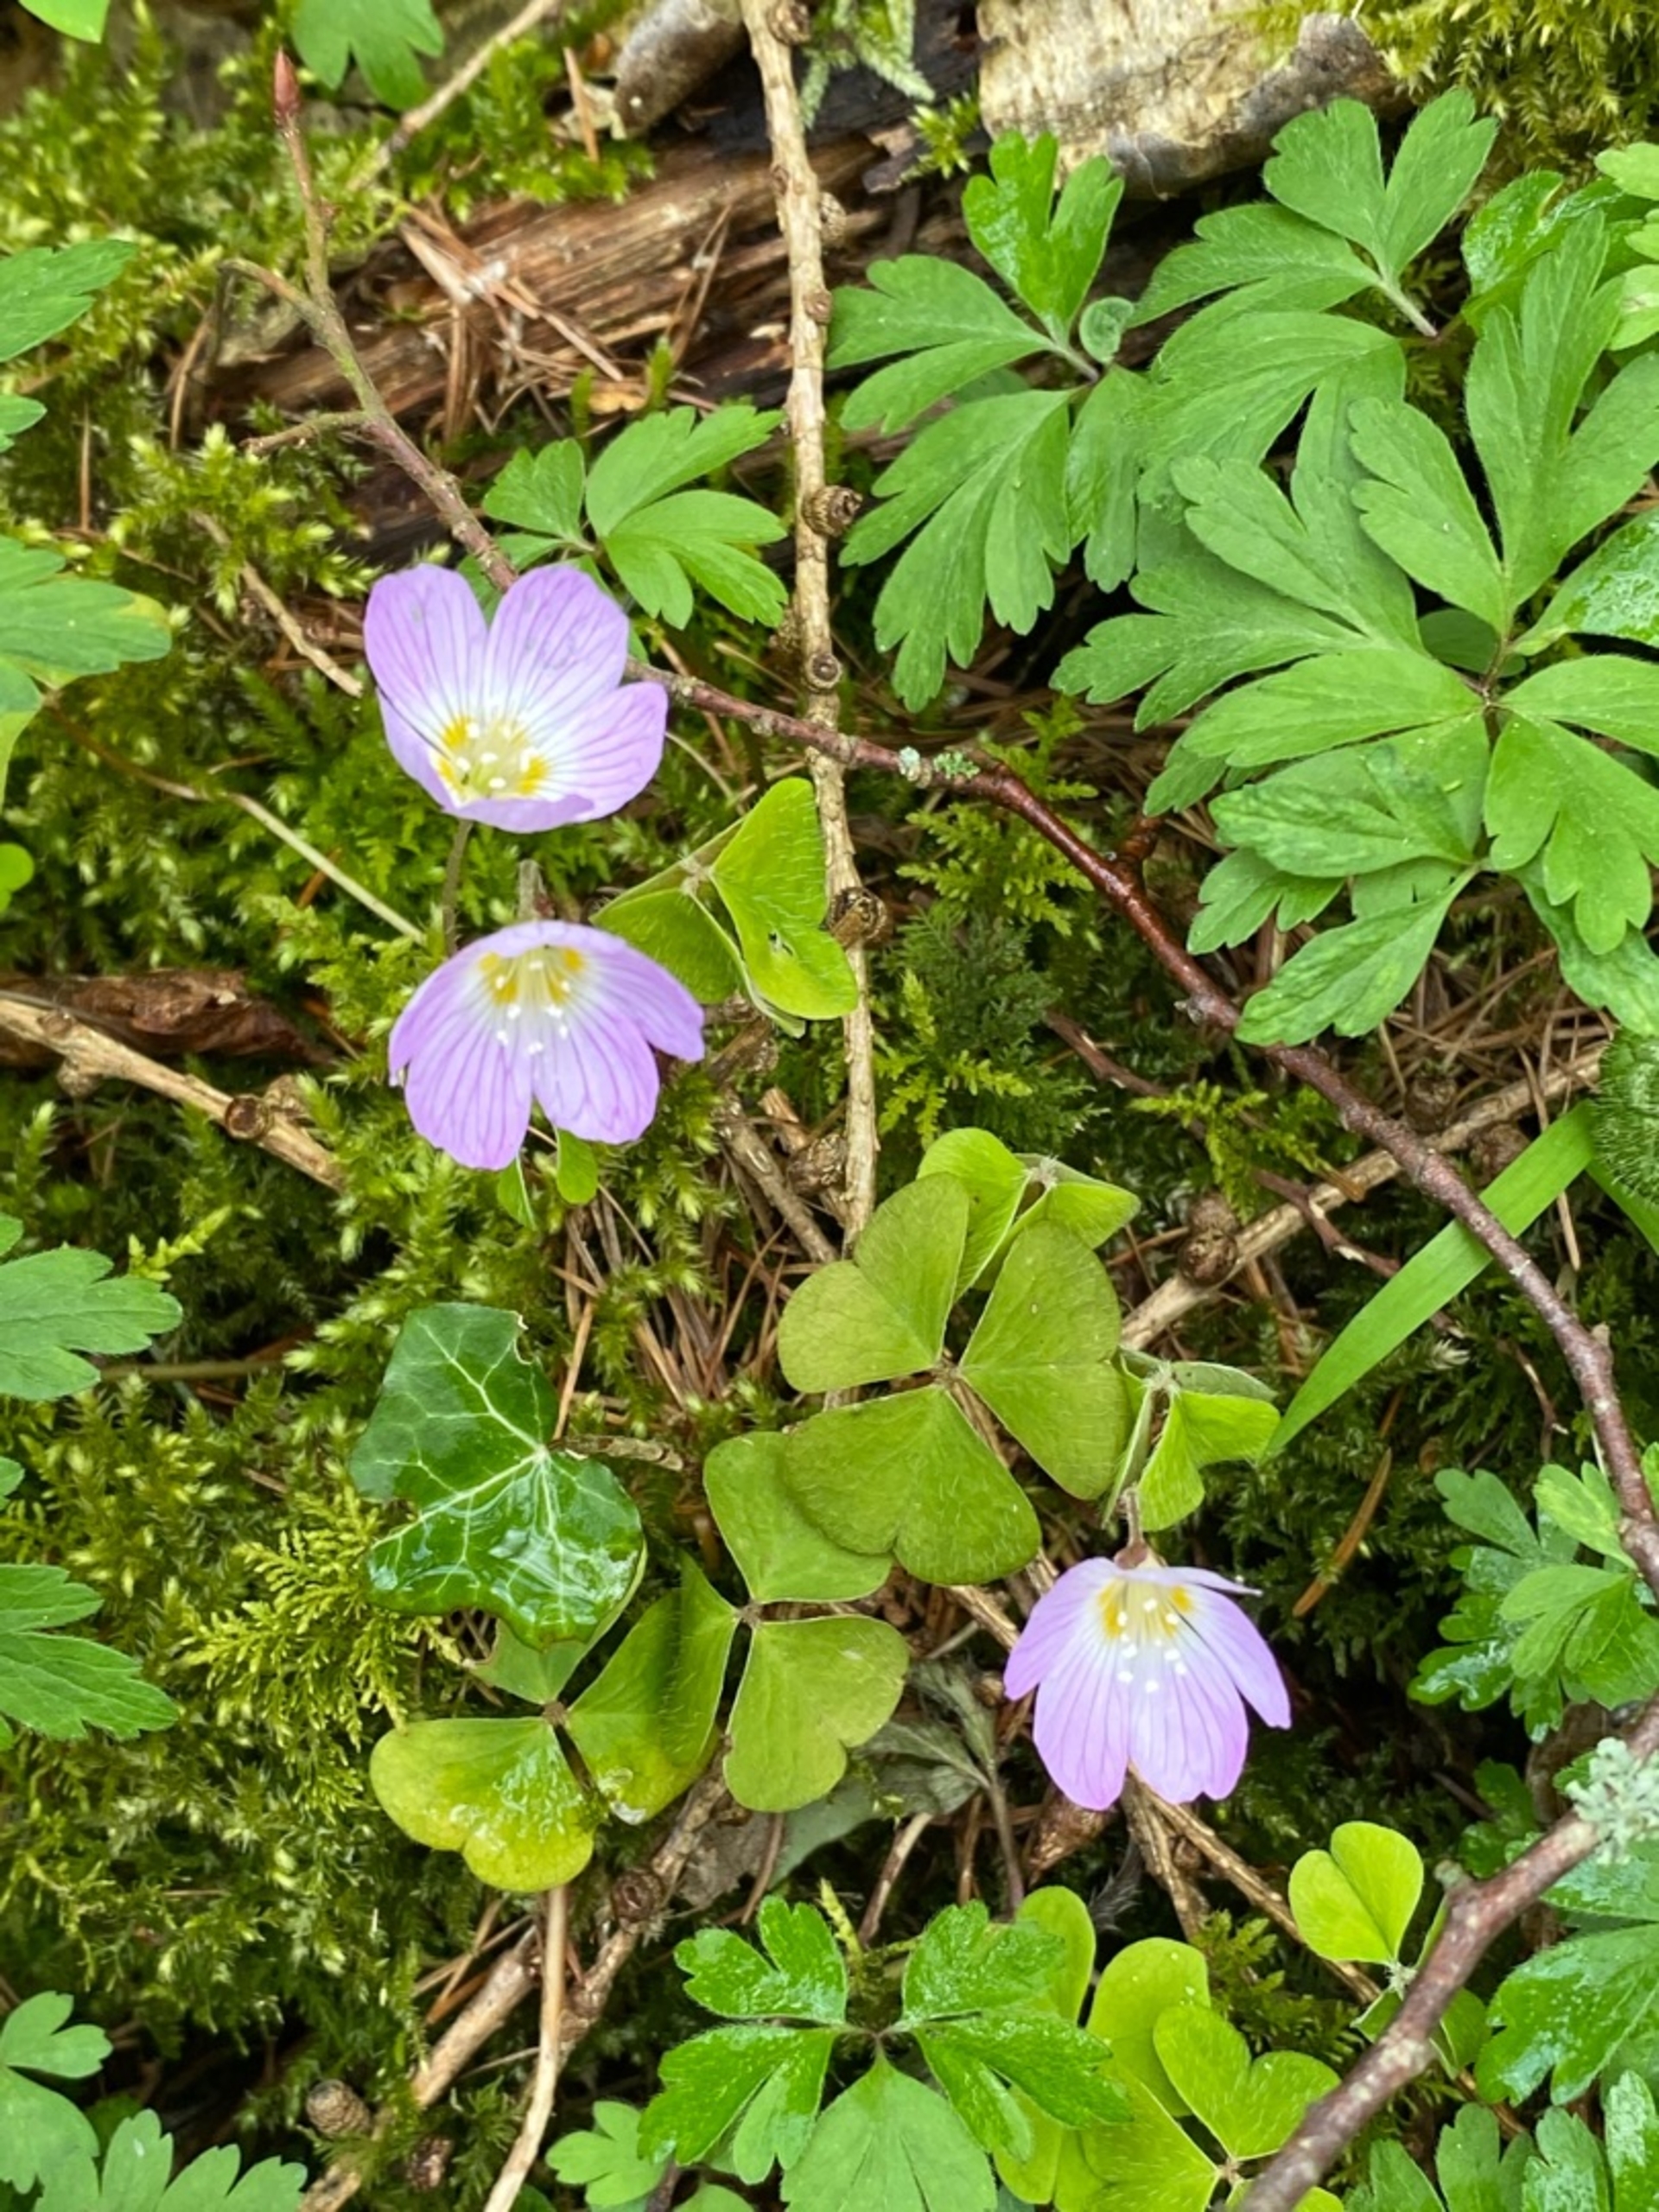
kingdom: Plantae
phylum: Tracheophyta
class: Magnoliopsida
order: Oxalidales
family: Oxalidaceae
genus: Oxalis
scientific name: Oxalis acetosella
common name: Skovsyre
